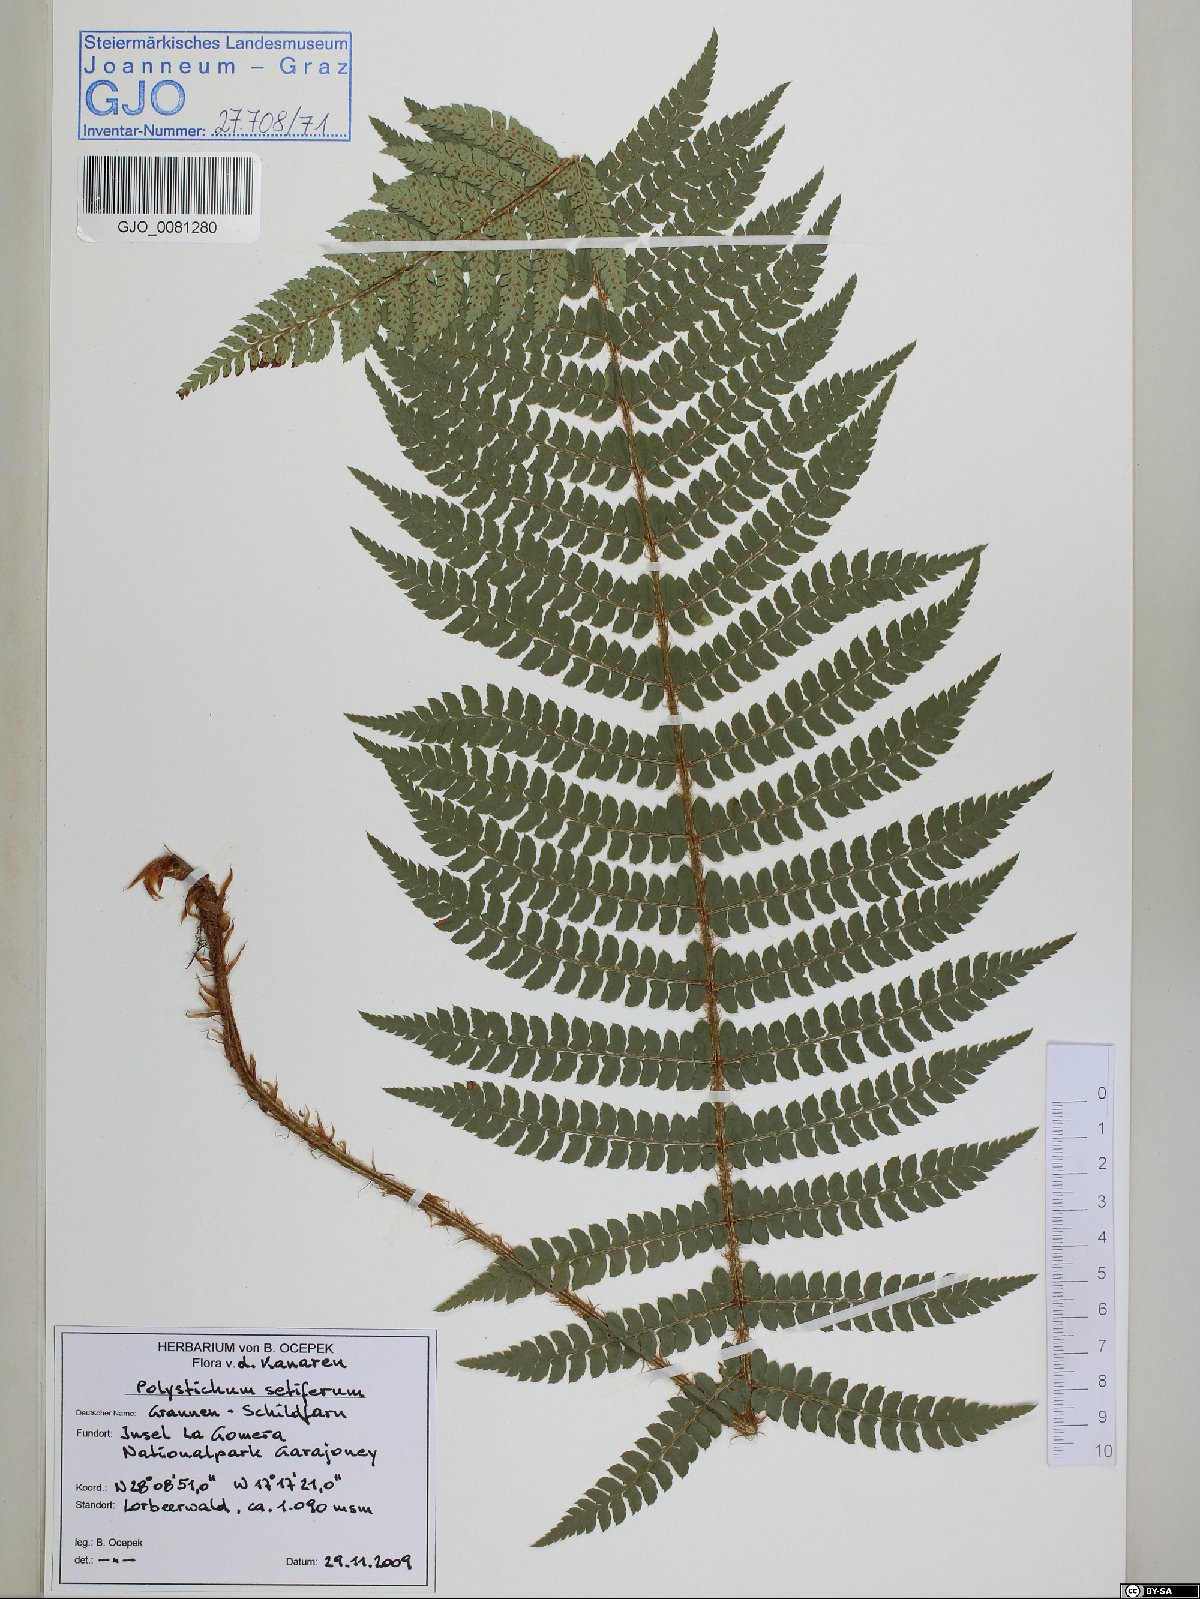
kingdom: Plantae
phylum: Tracheophyta
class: Polypodiopsida
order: Polypodiales
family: Dryopteridaceae
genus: Polystichum
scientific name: Polystichum setiferum
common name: Soft shield-fern
